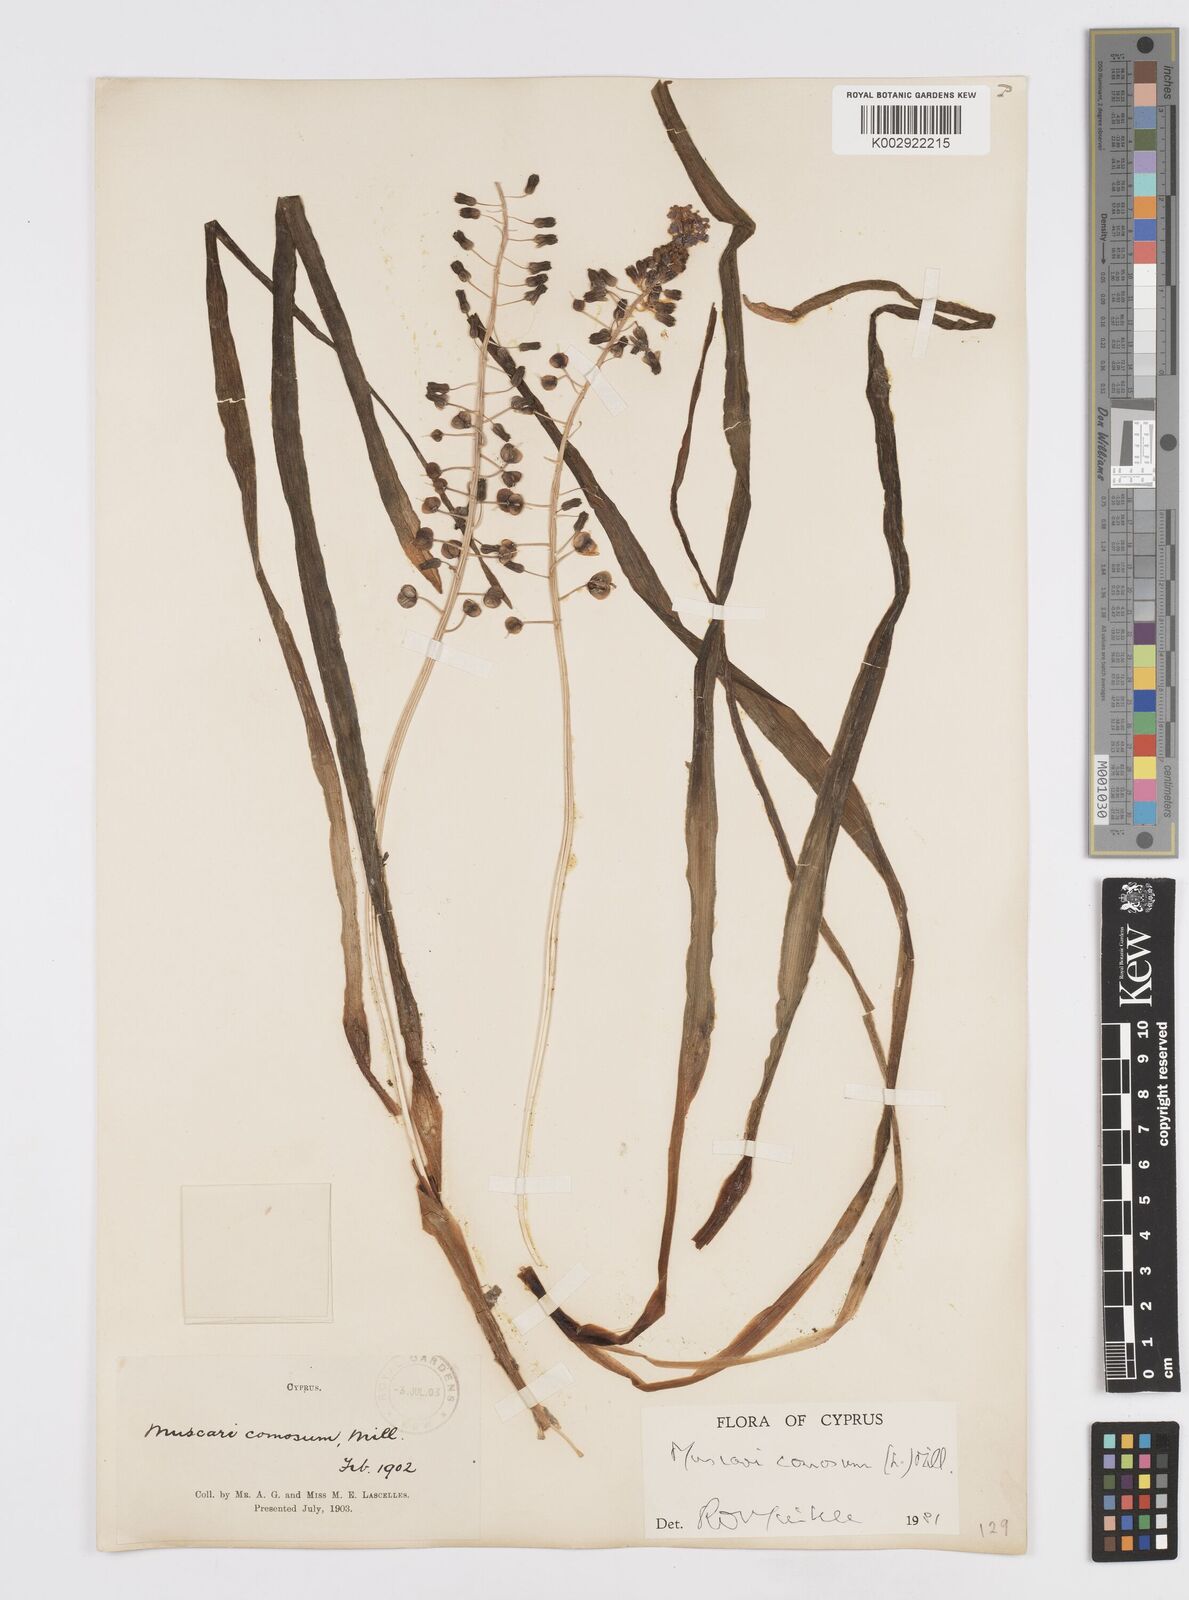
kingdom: Plantae
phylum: Tracheophyta
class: Liliopsida
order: Asparagales
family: Asparagaceae
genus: Muscari
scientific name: Muscari comosum
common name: Tassel hyacinth
